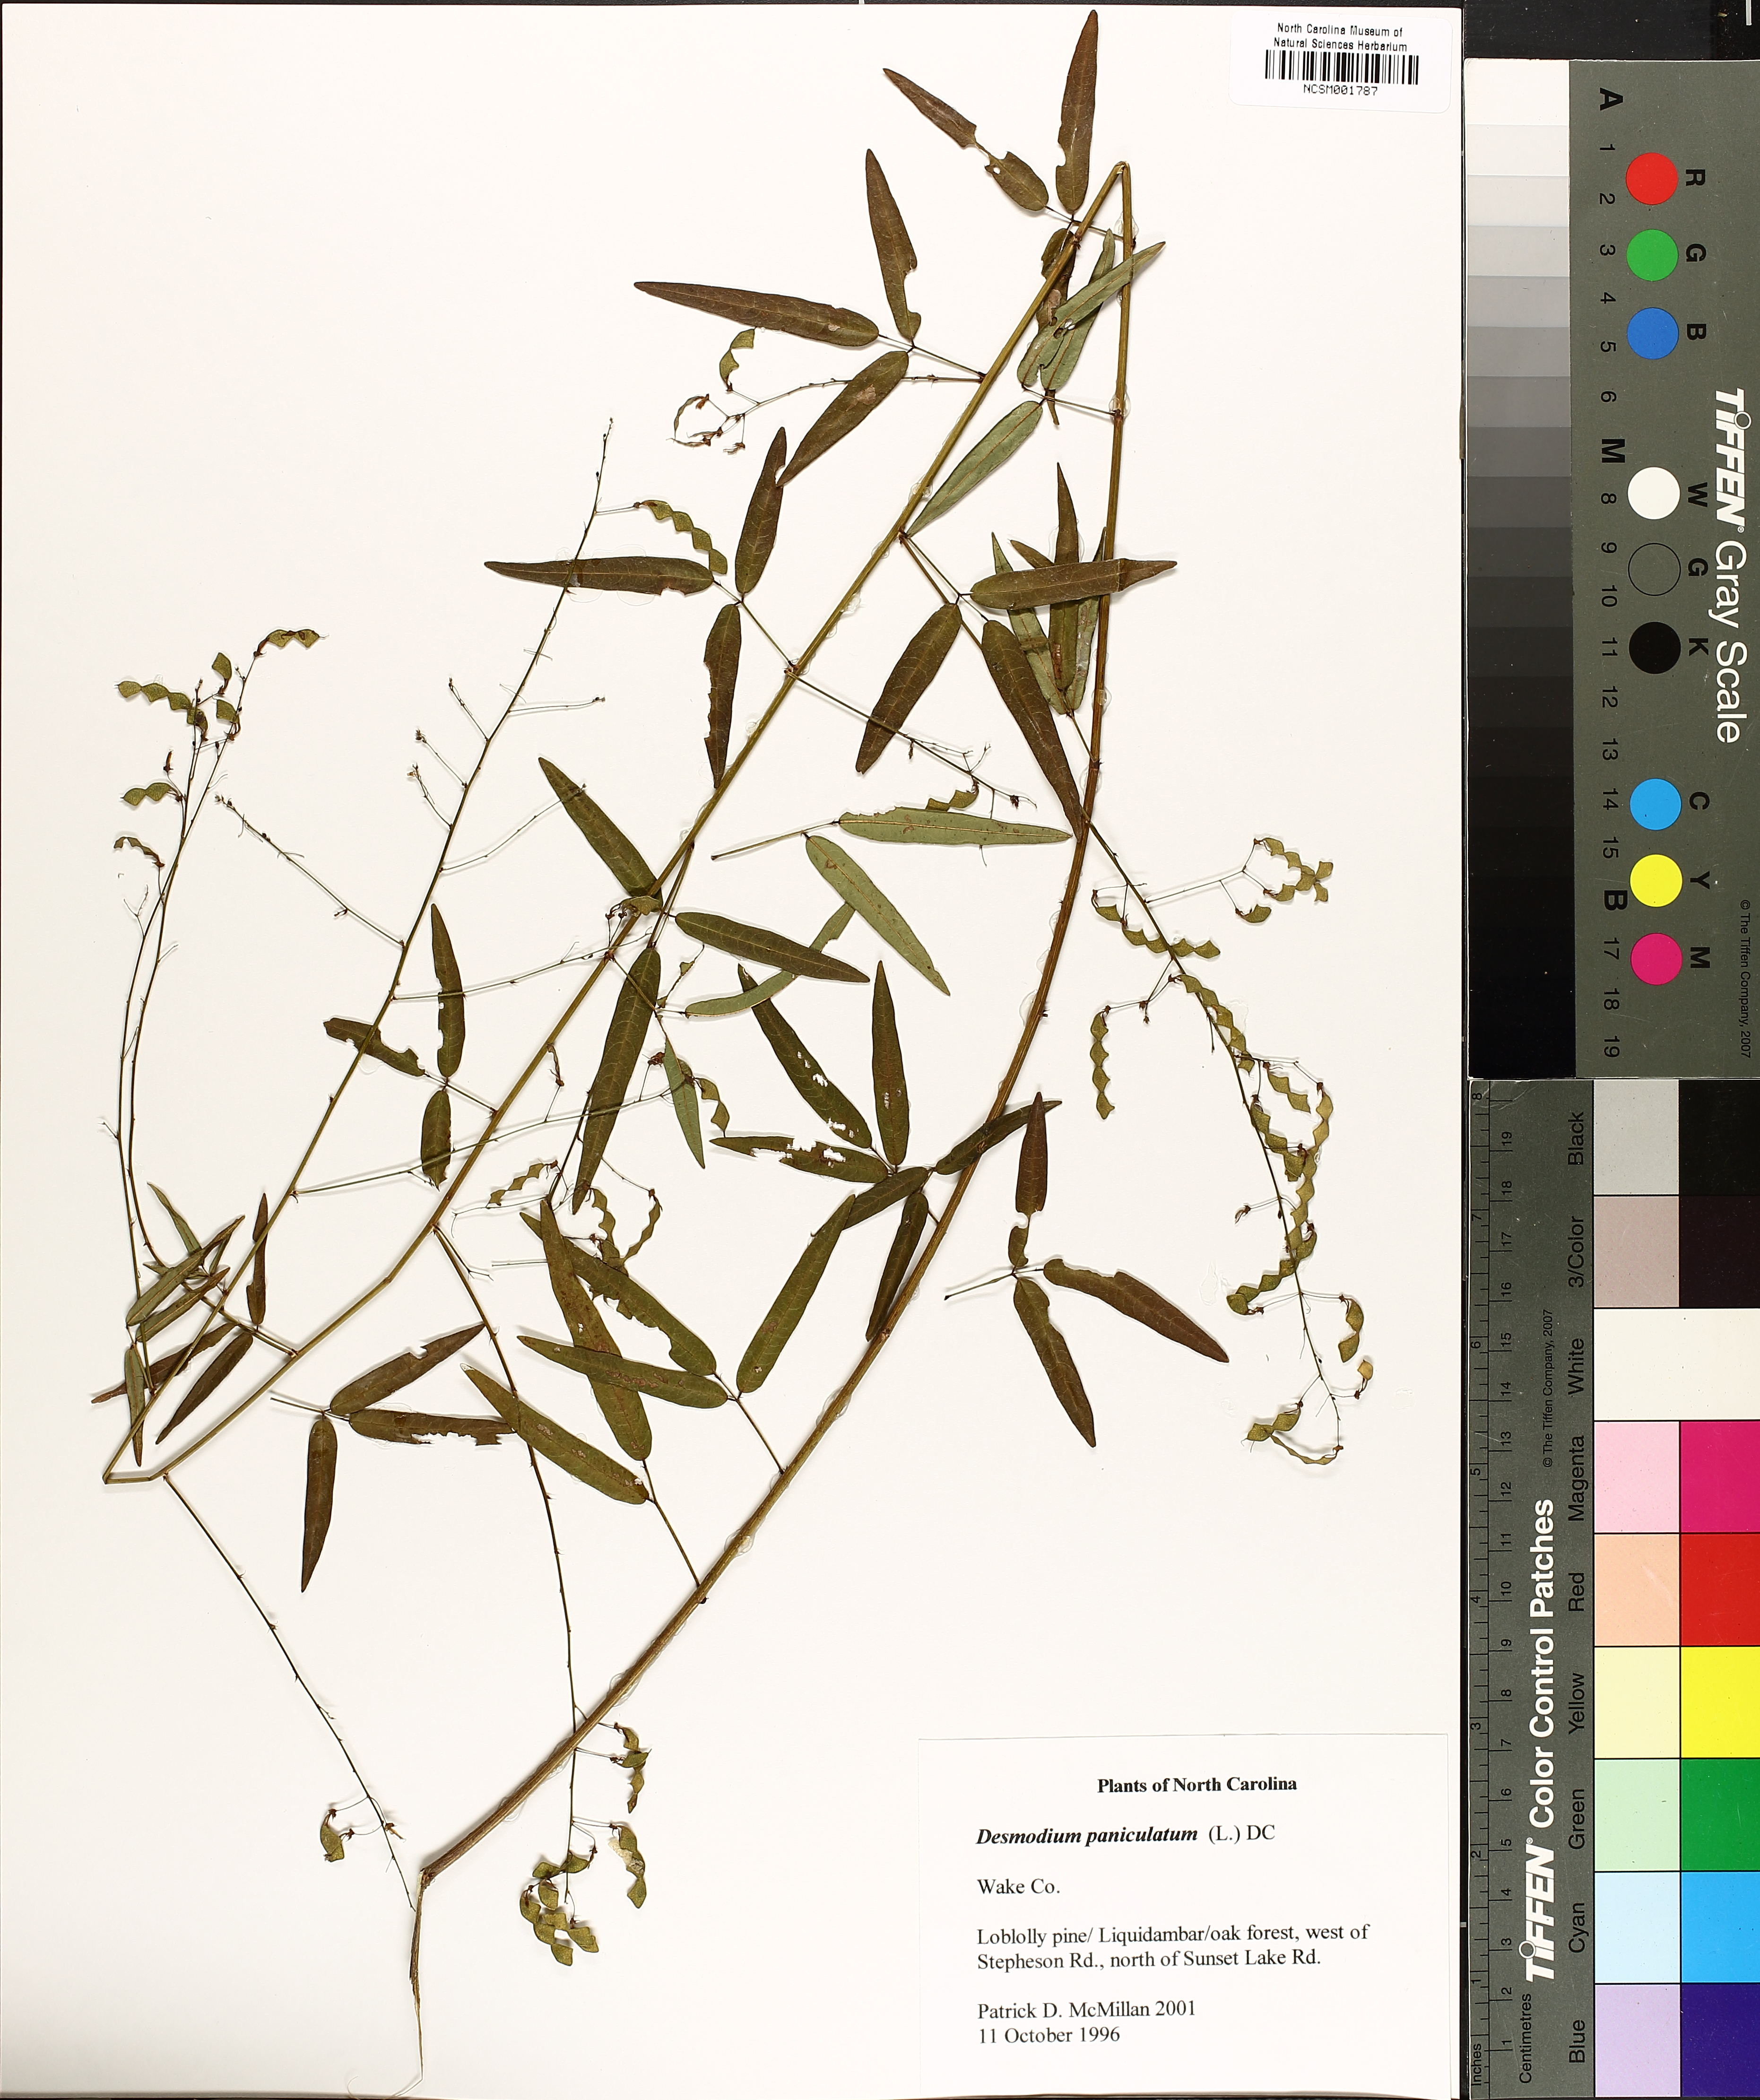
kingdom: Plantae
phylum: Tracheophyta
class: Magnoliopsida
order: Fabales
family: Fabaceae
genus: Desmodium
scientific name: Desmodium paniculatum
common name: Panicled tick-clover
